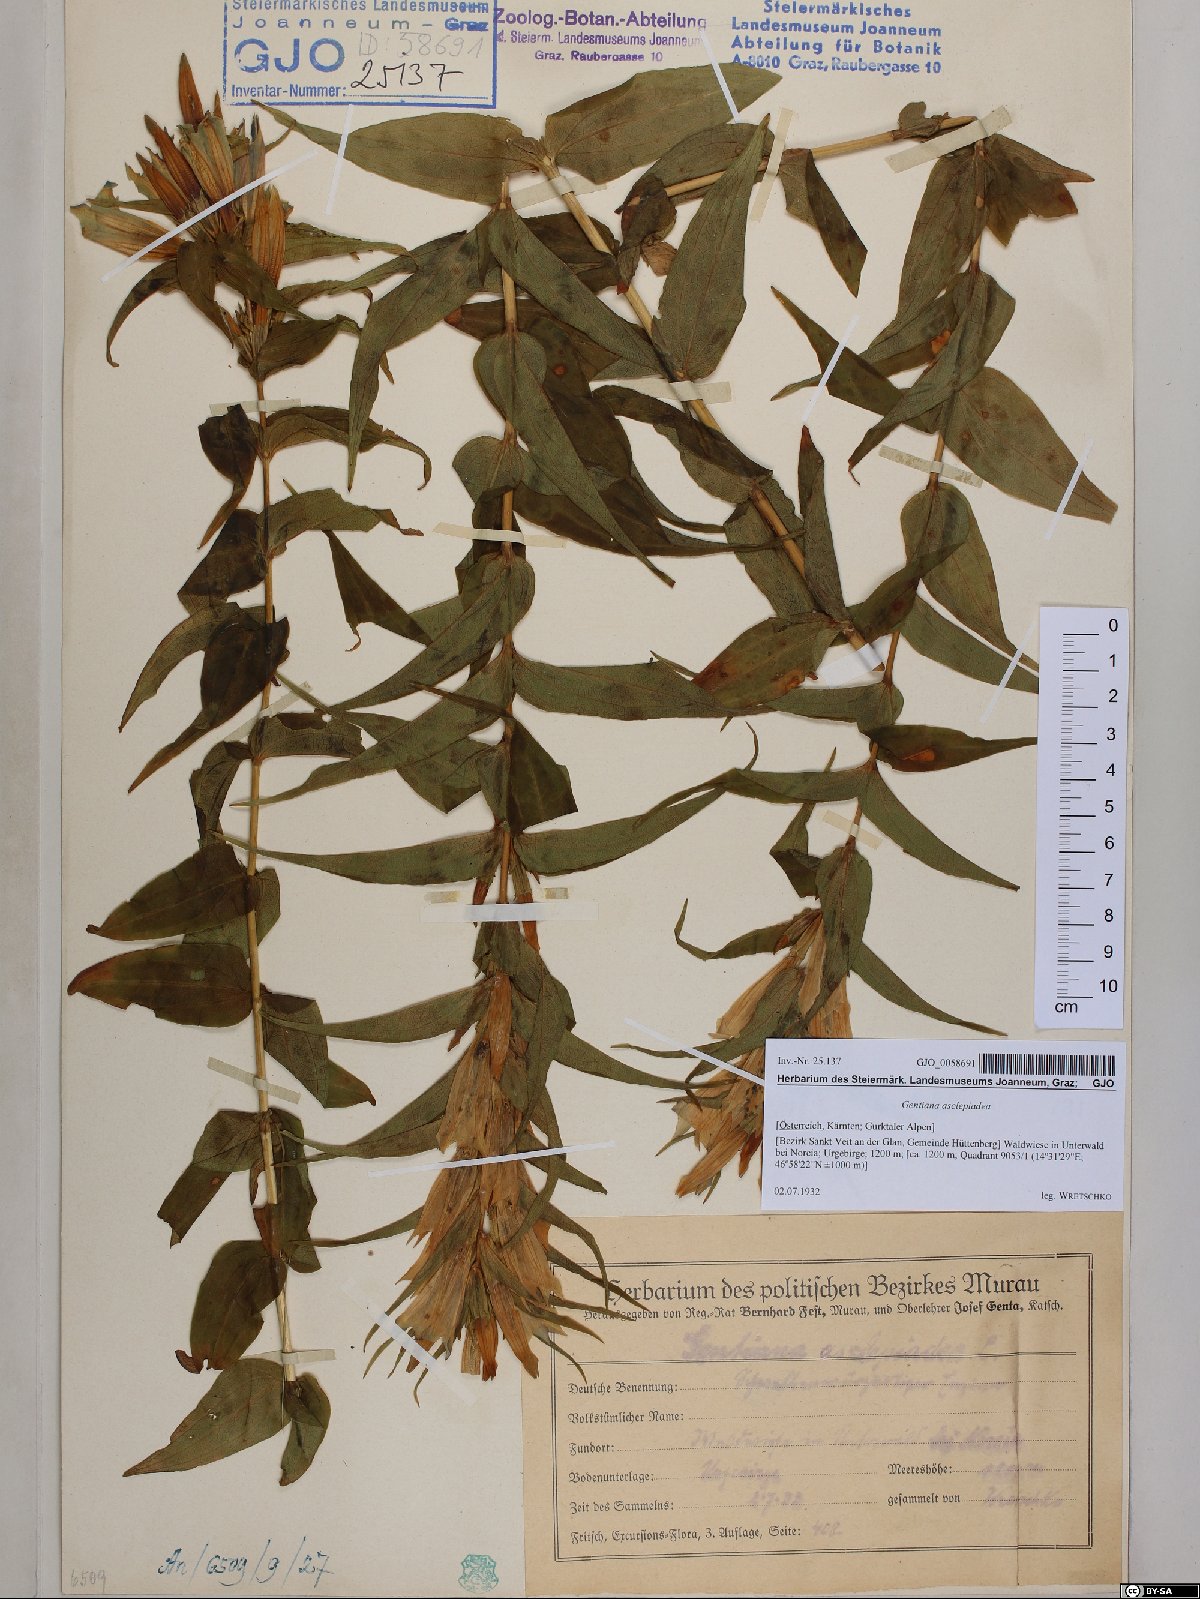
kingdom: Plantae
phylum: Tracheophyta
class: Magnoliopsida
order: Gentianales
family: Gentianaceae
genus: Gentiana
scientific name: Gentiana asclepiadea
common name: Willow gentian
